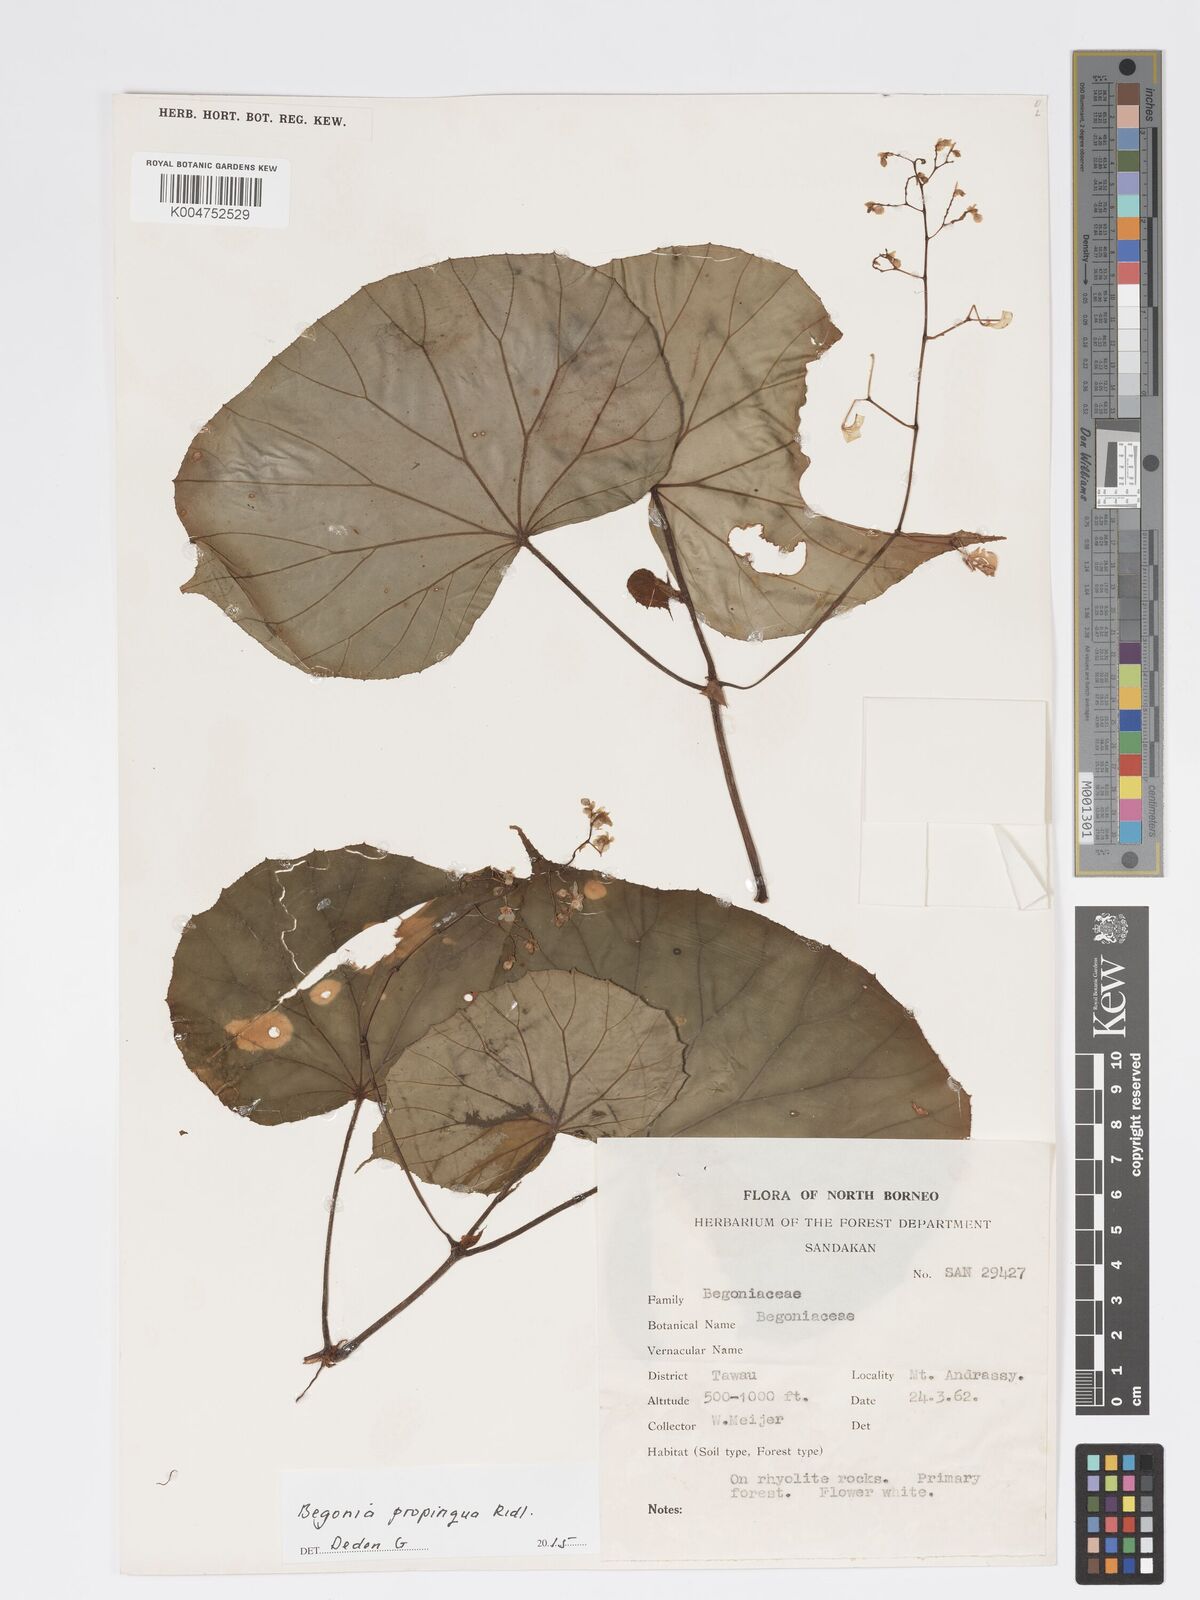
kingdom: Plantae
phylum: Tracheophyta
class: Magnoliopsida
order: Cucurbitales
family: Begoniaceae
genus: Begonia
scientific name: Begonia propinqua
